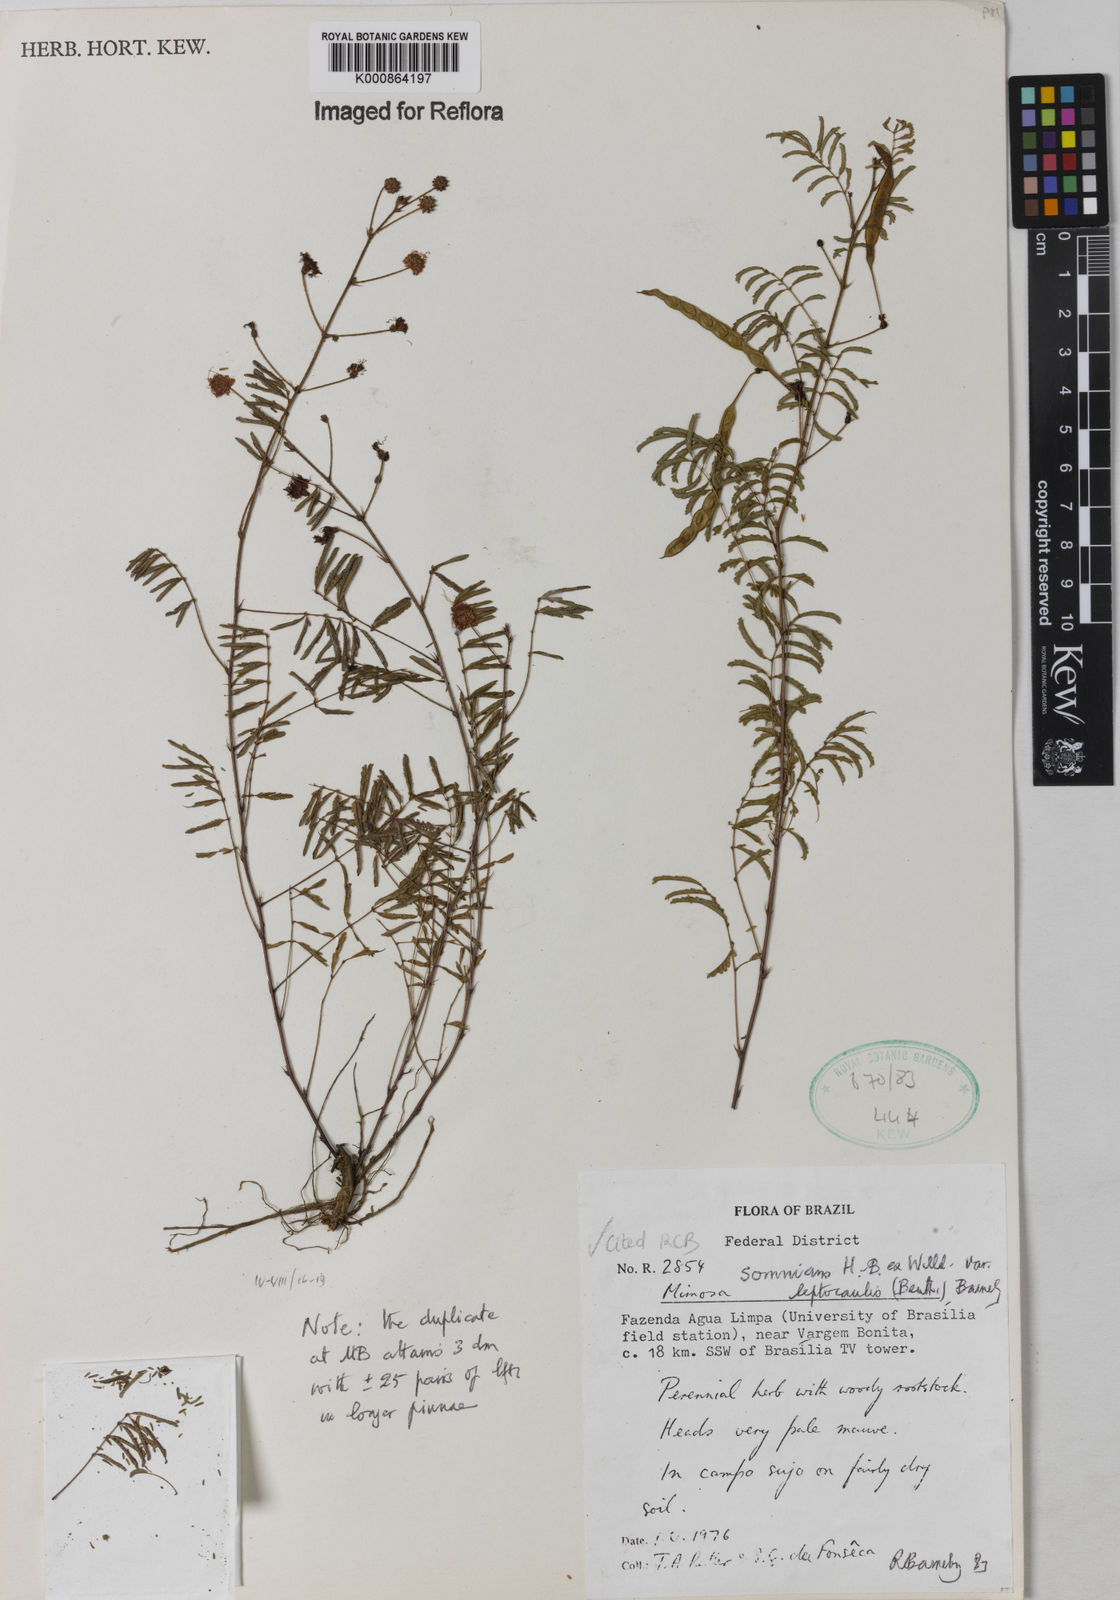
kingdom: Plantae
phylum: Tracheophyta
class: Magnoliopsida
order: Fabales
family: Fabaceae
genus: Mimosa
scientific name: Mimosa somnians
